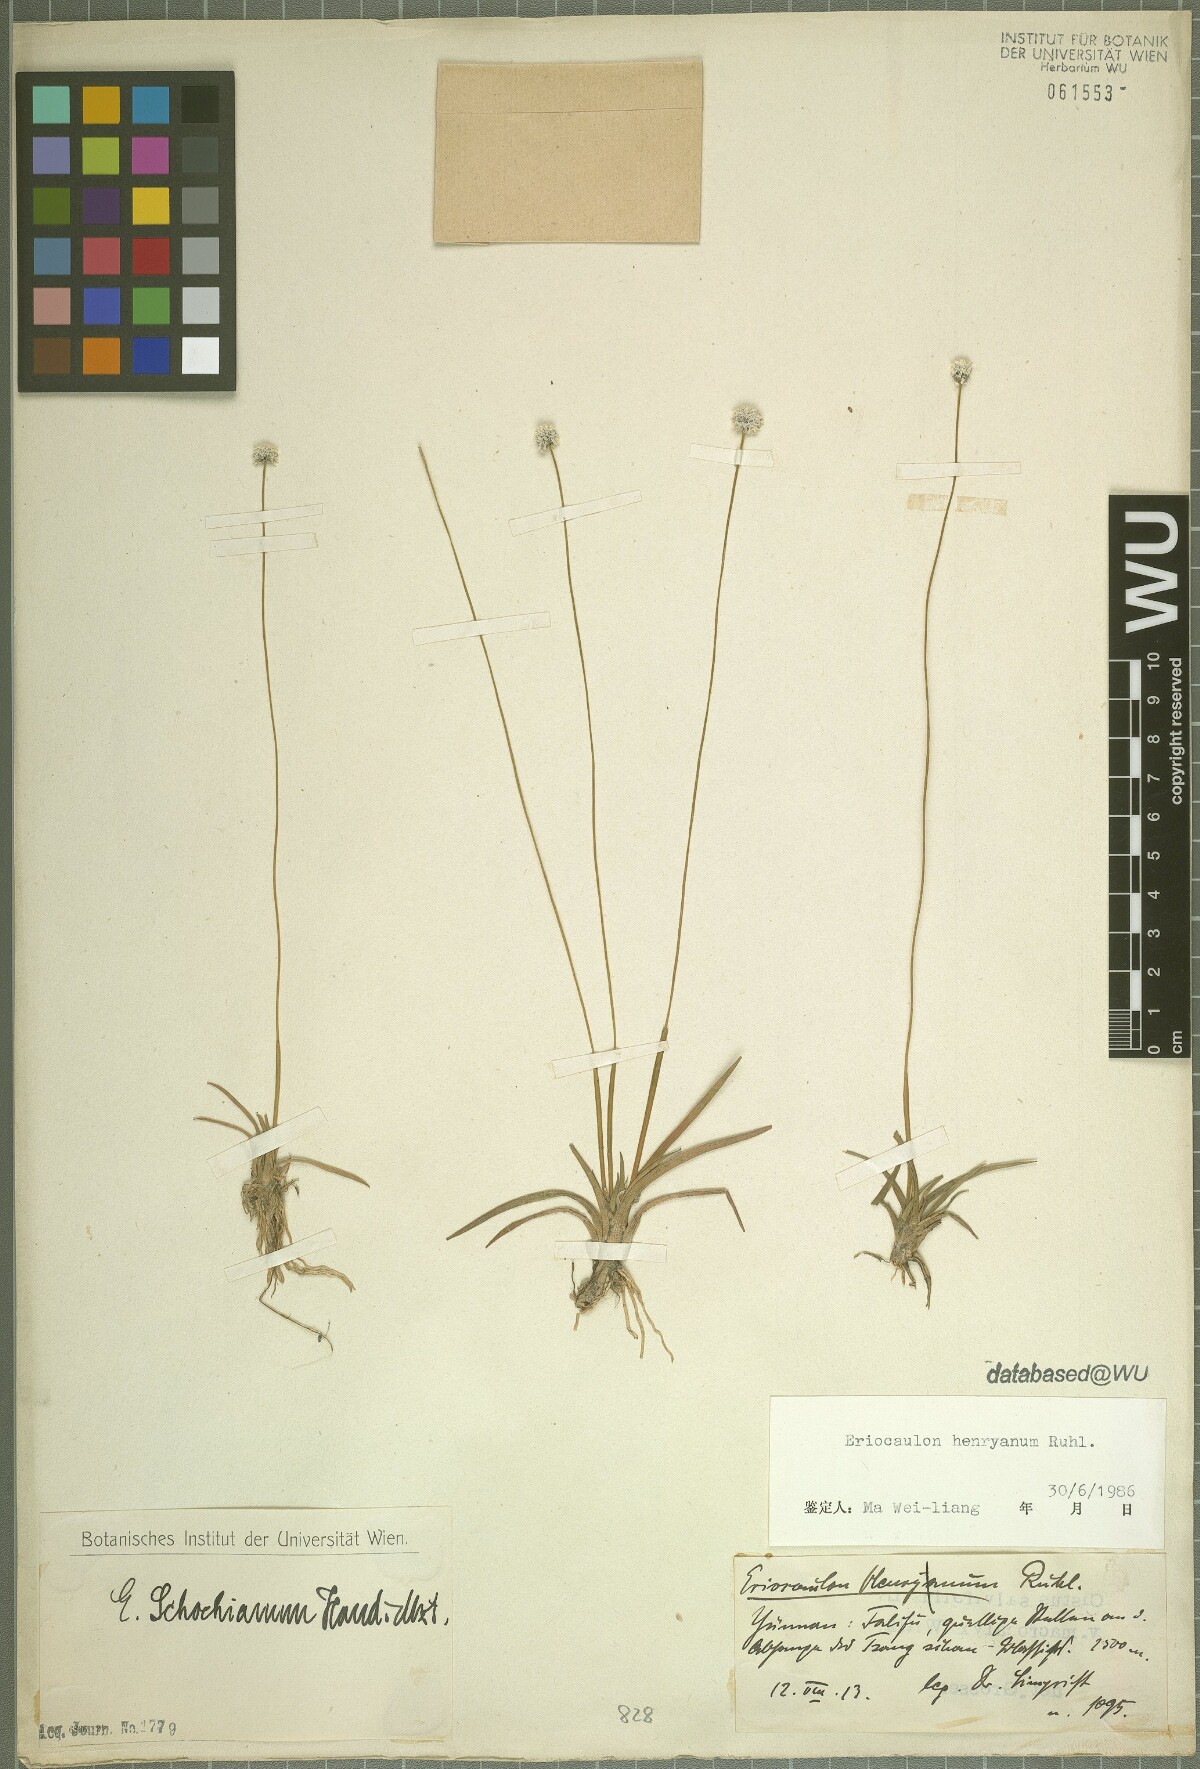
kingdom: Plantae
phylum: Tracheophyta
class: Liliopsida
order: Poales
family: Eriocaulaceae
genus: Eriocaulon
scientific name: Eriocaulon henryanum
